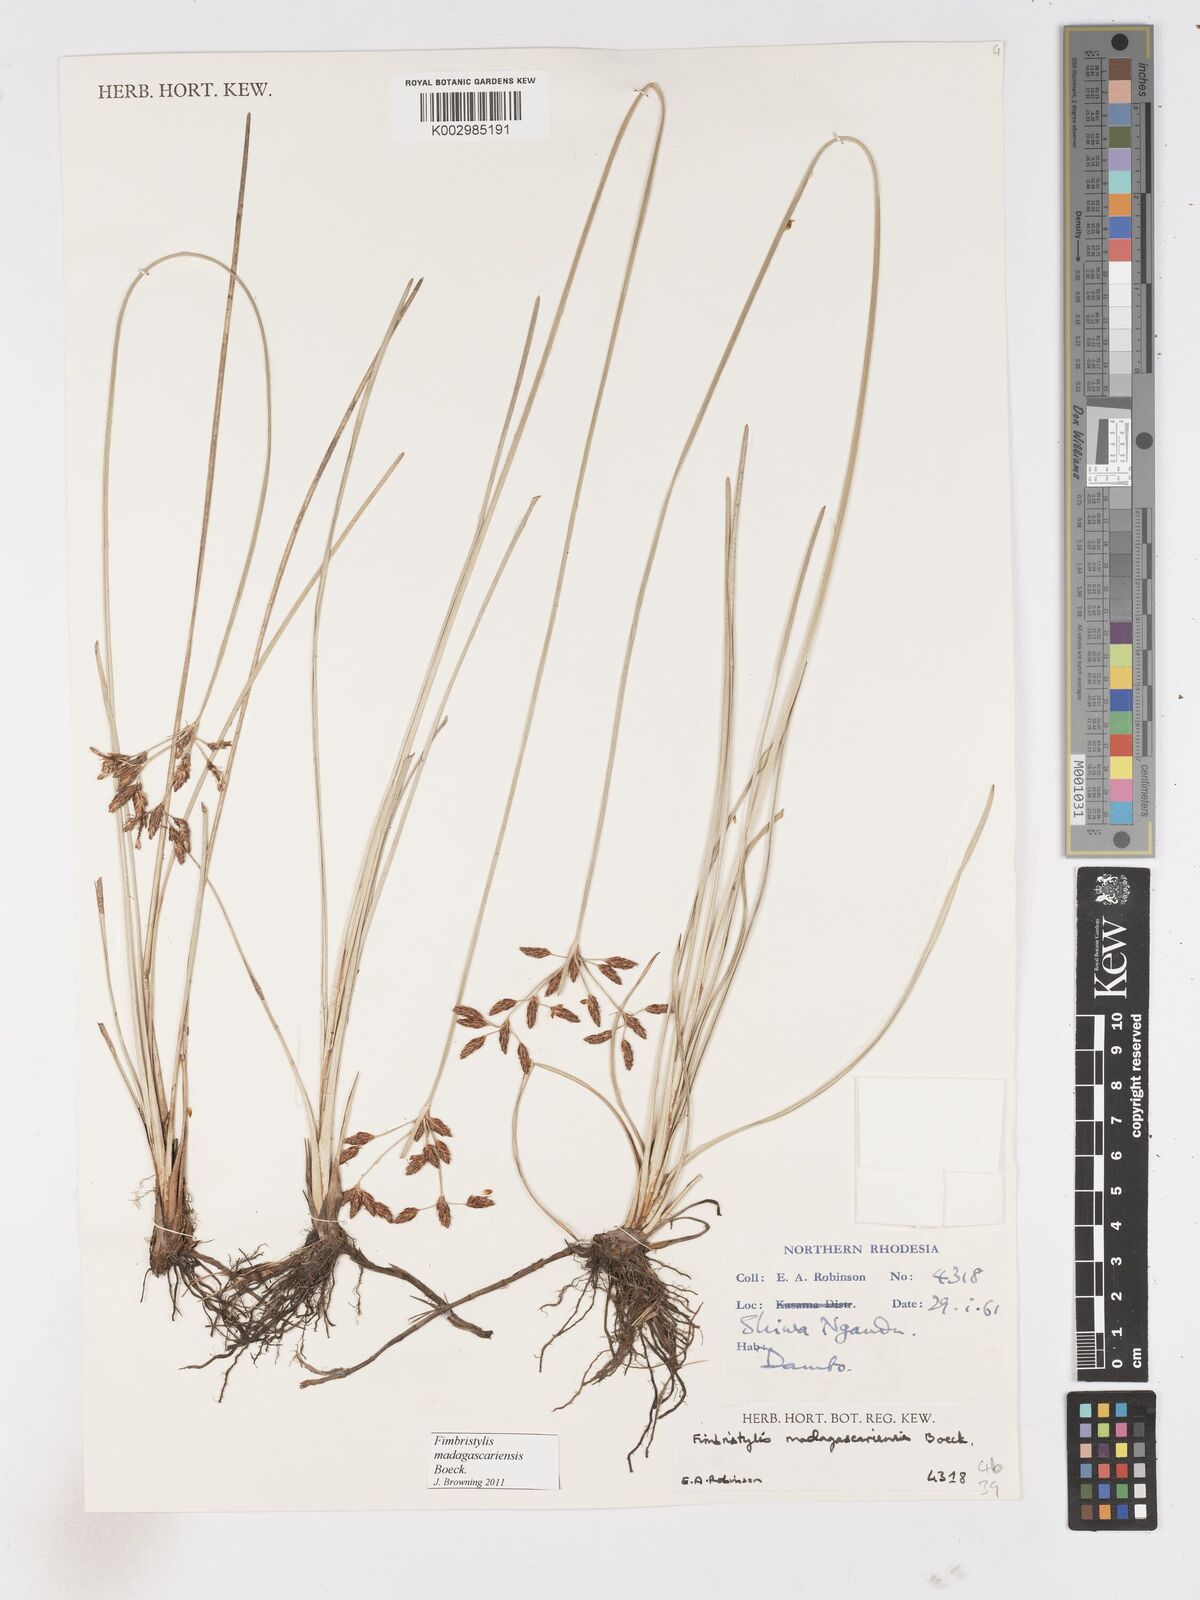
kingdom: Plantae
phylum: Tracheophyta
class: Liliopsida
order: Poales
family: Cyperaceae
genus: Fimbristylis
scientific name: Fimbristylis madagascariensis
